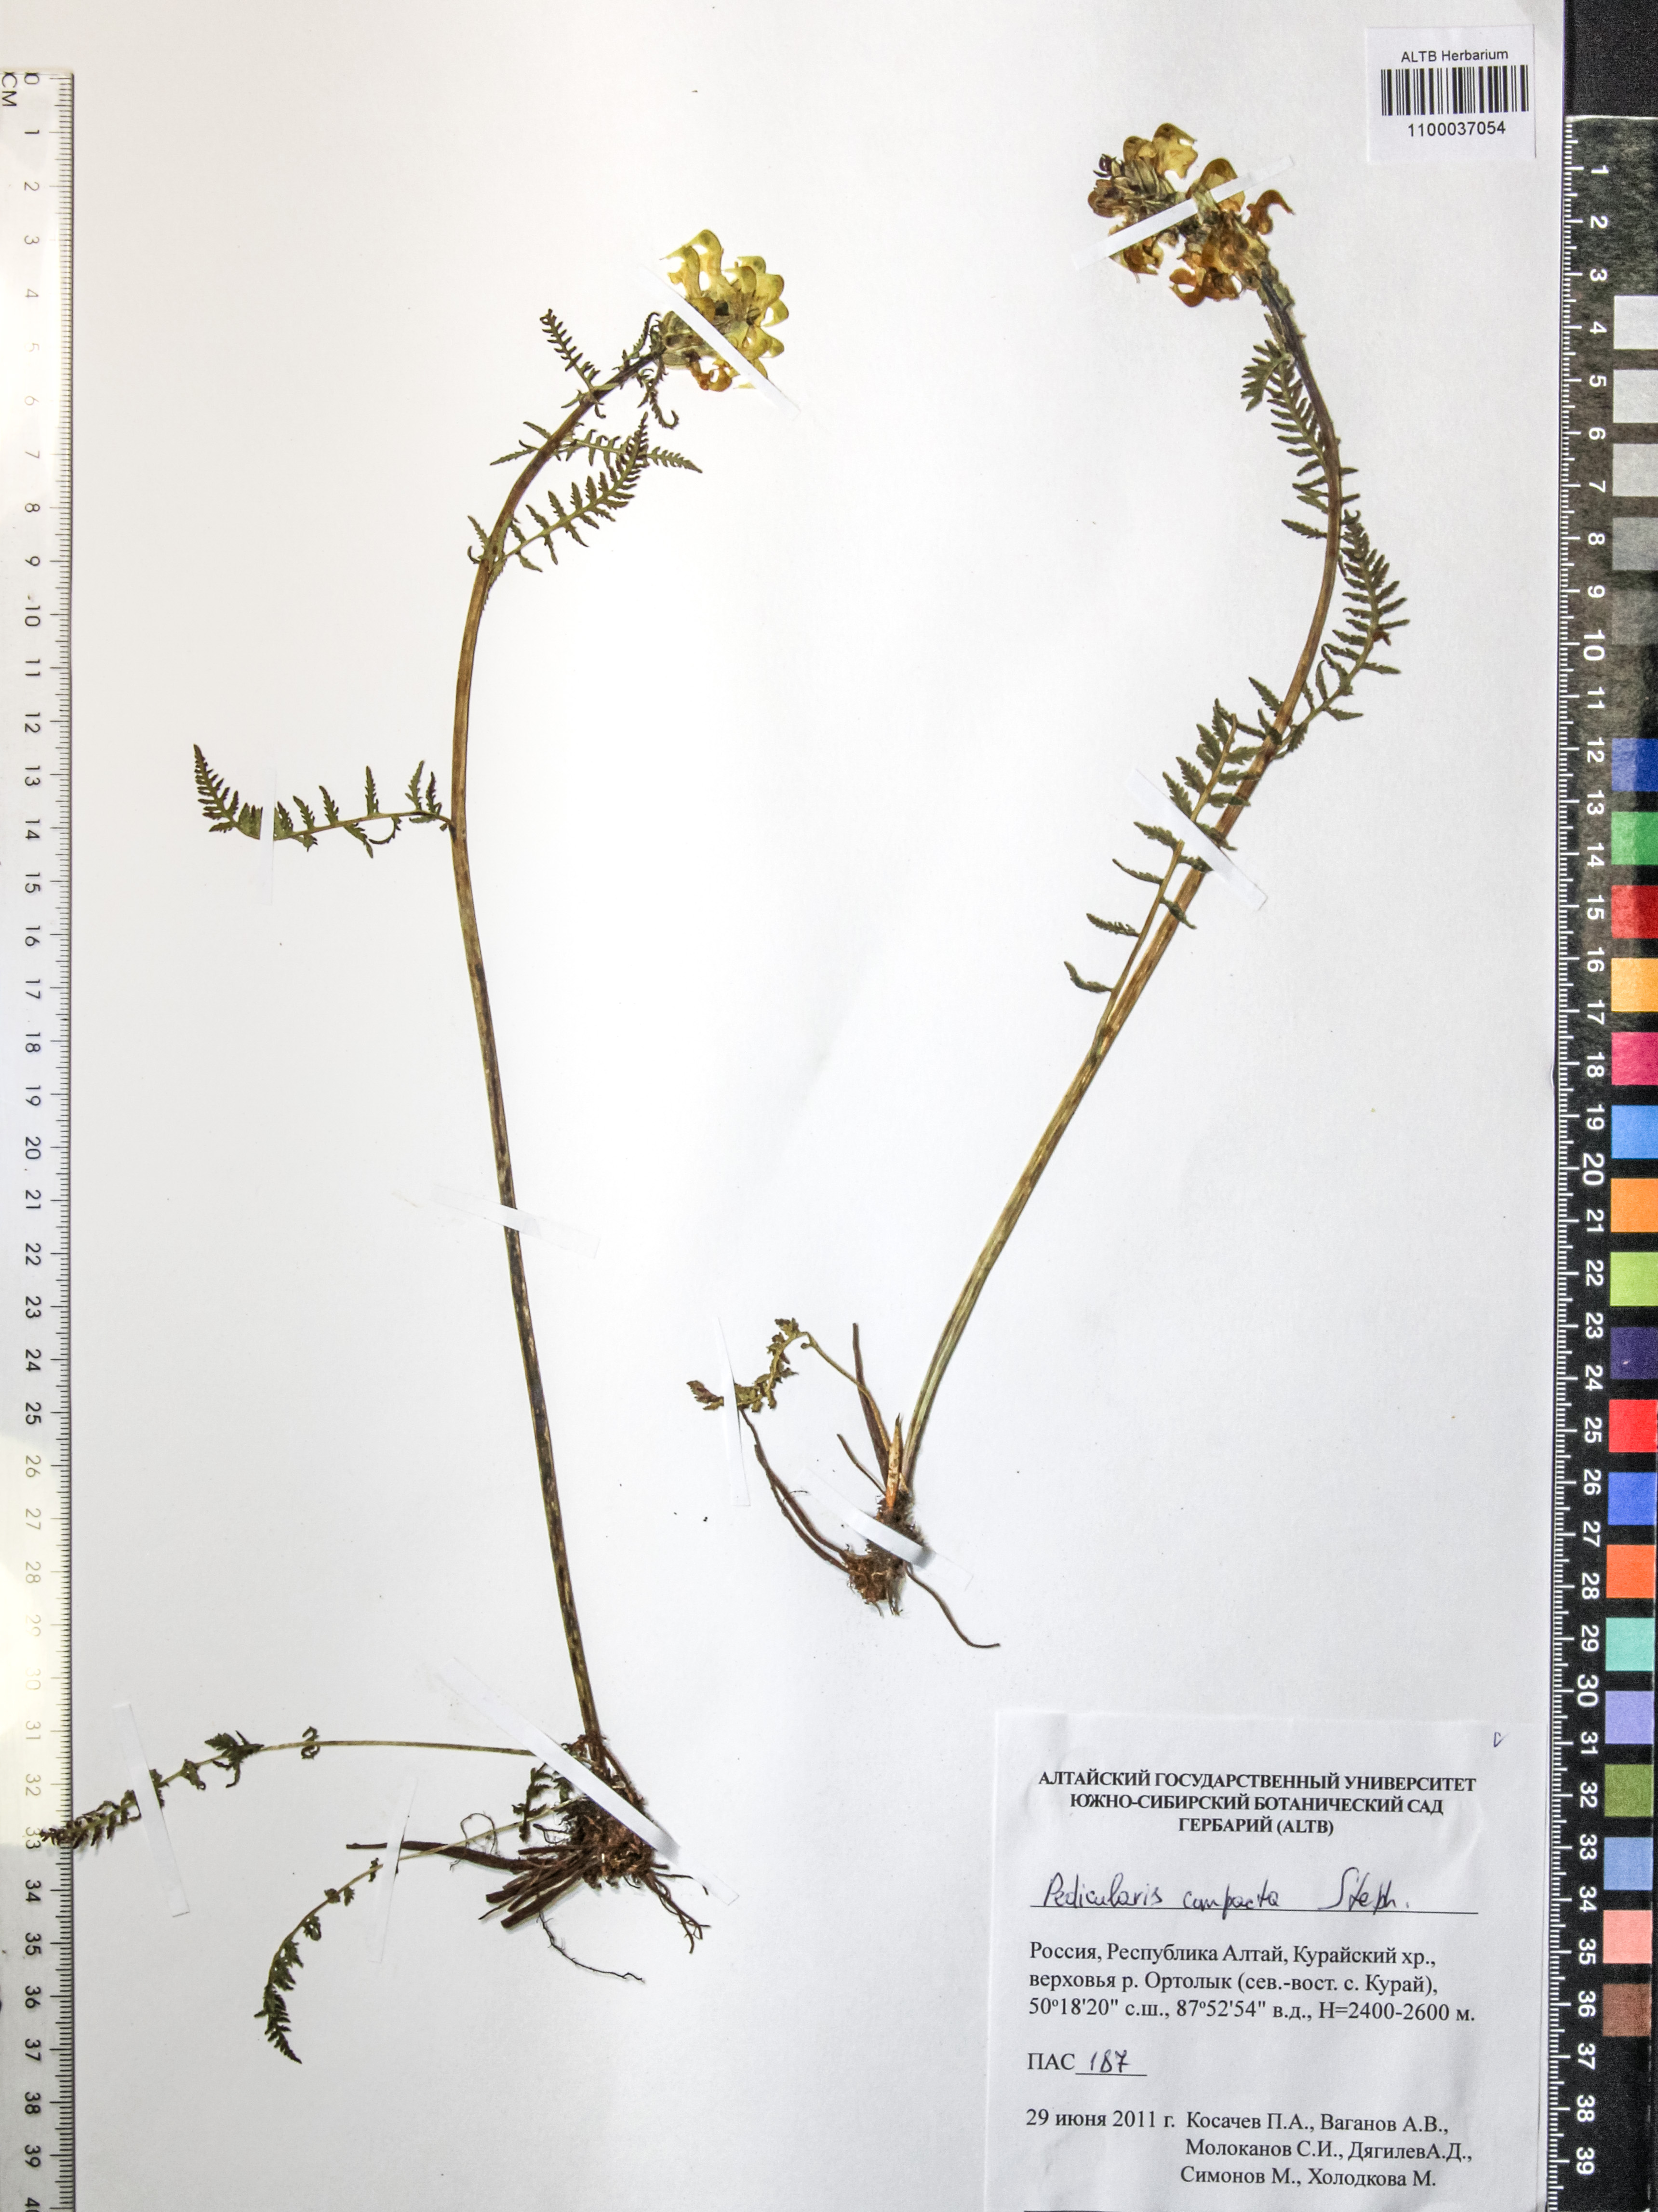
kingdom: Plantae
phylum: Tracheophyta
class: Magnoliopsida
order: Lamiales
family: Orobanchaceae
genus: Pedicularis
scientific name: Pedicularis compacta
